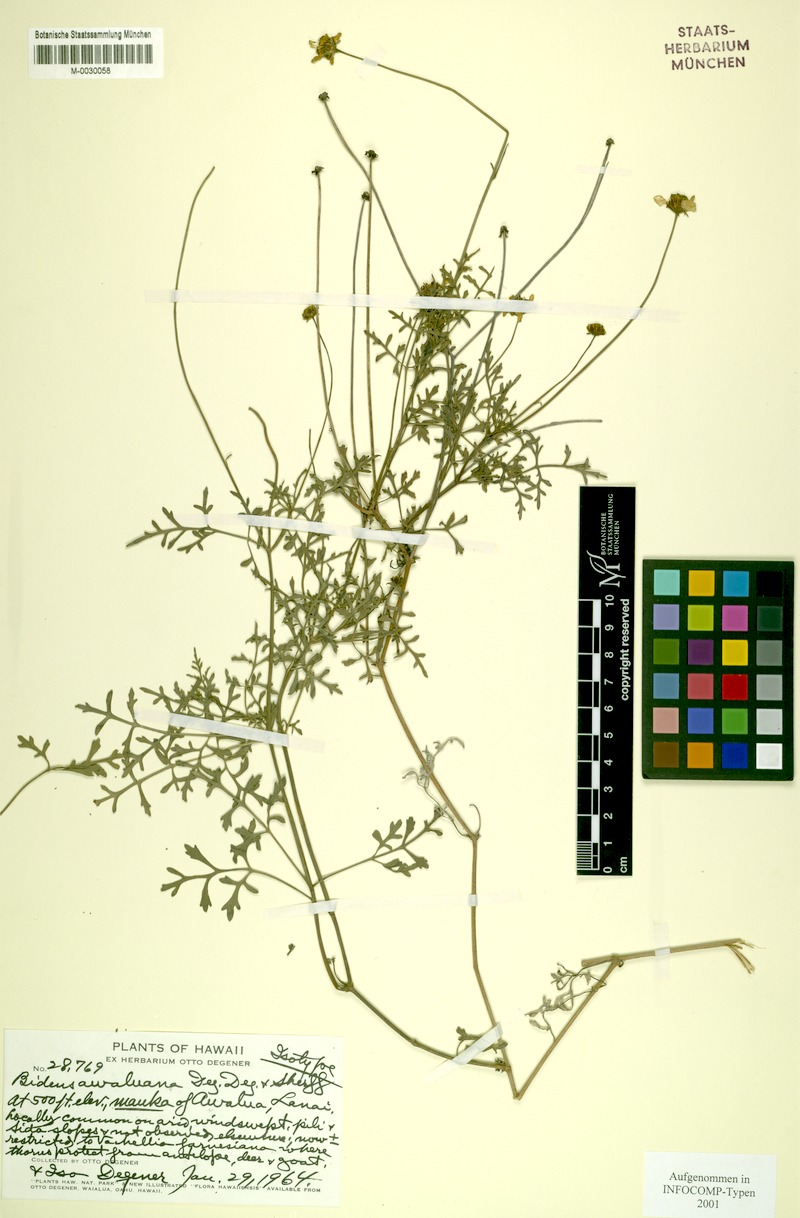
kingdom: Plantae
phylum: Tracheophyta
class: Magnoliopsida
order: Asterales
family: Asteraceae
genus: Bidens
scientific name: Bidens mauiensis
